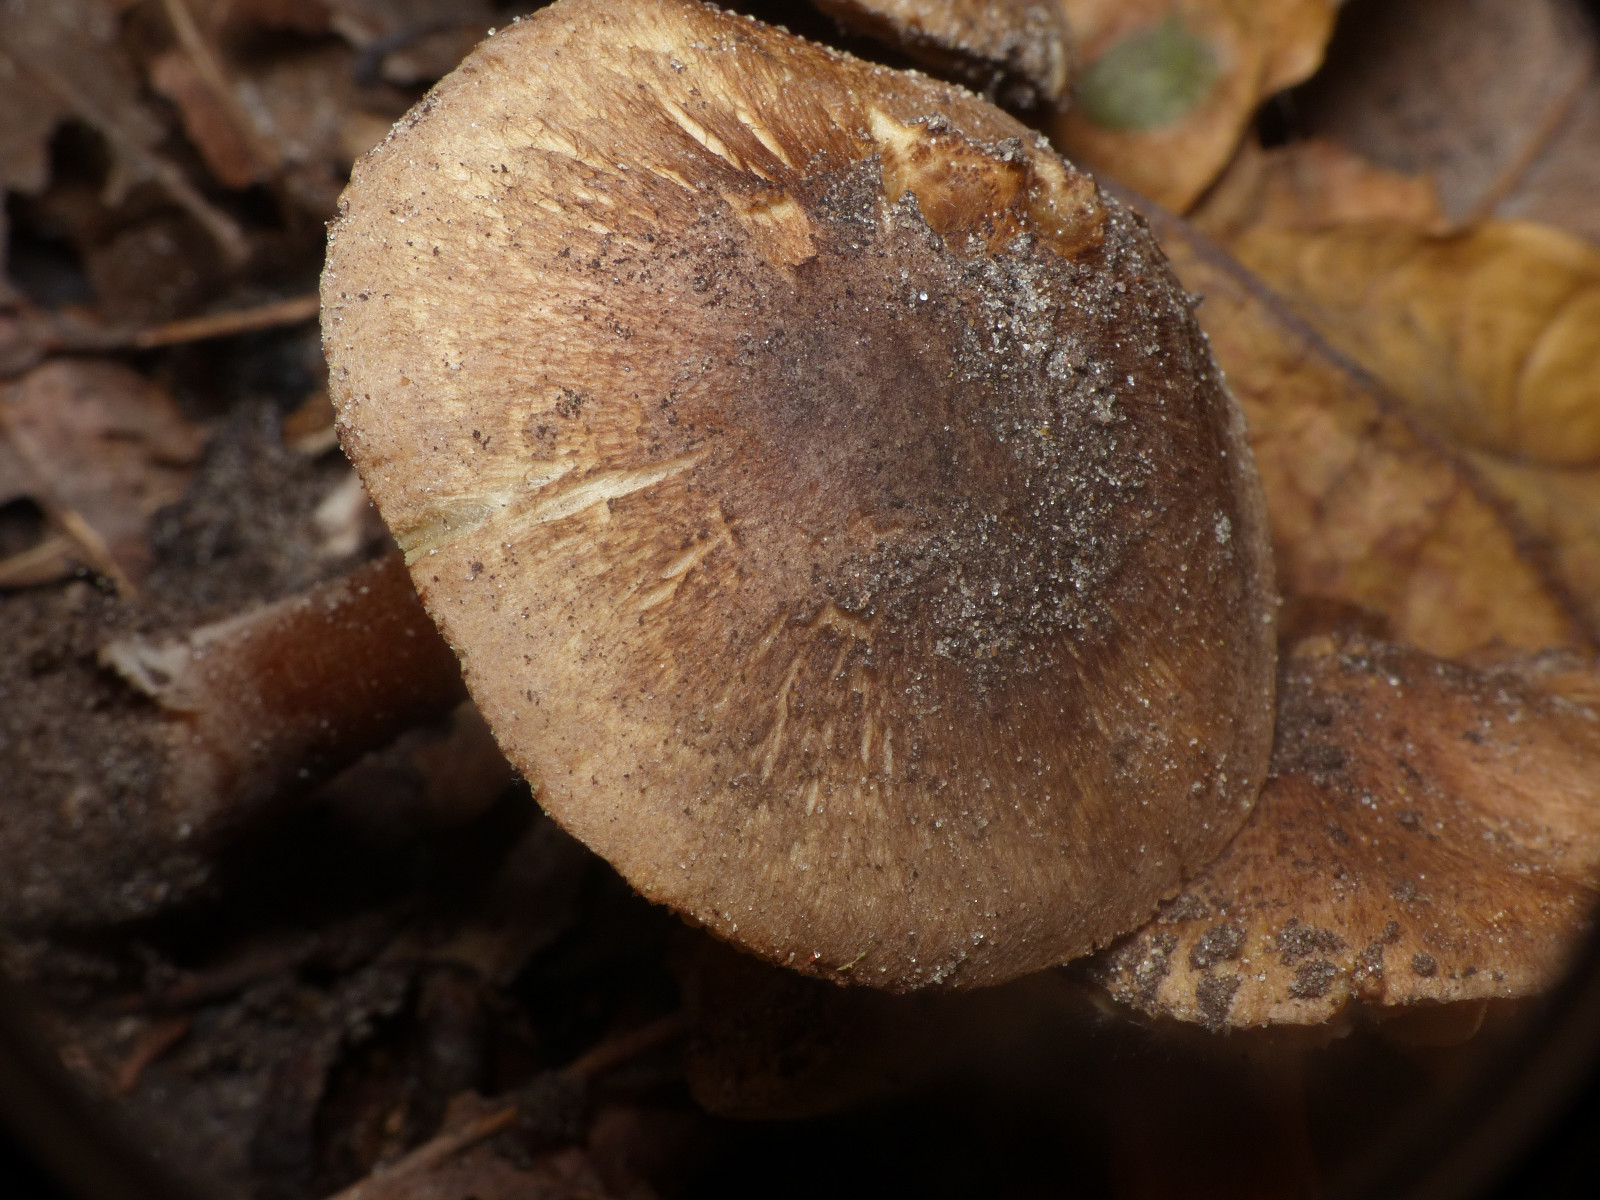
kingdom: Fungi
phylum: Basidiomycota
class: Agaricomycetes
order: Agaricales
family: Inocybaceae
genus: Inocybe
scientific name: Inocybe
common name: trævlhat
